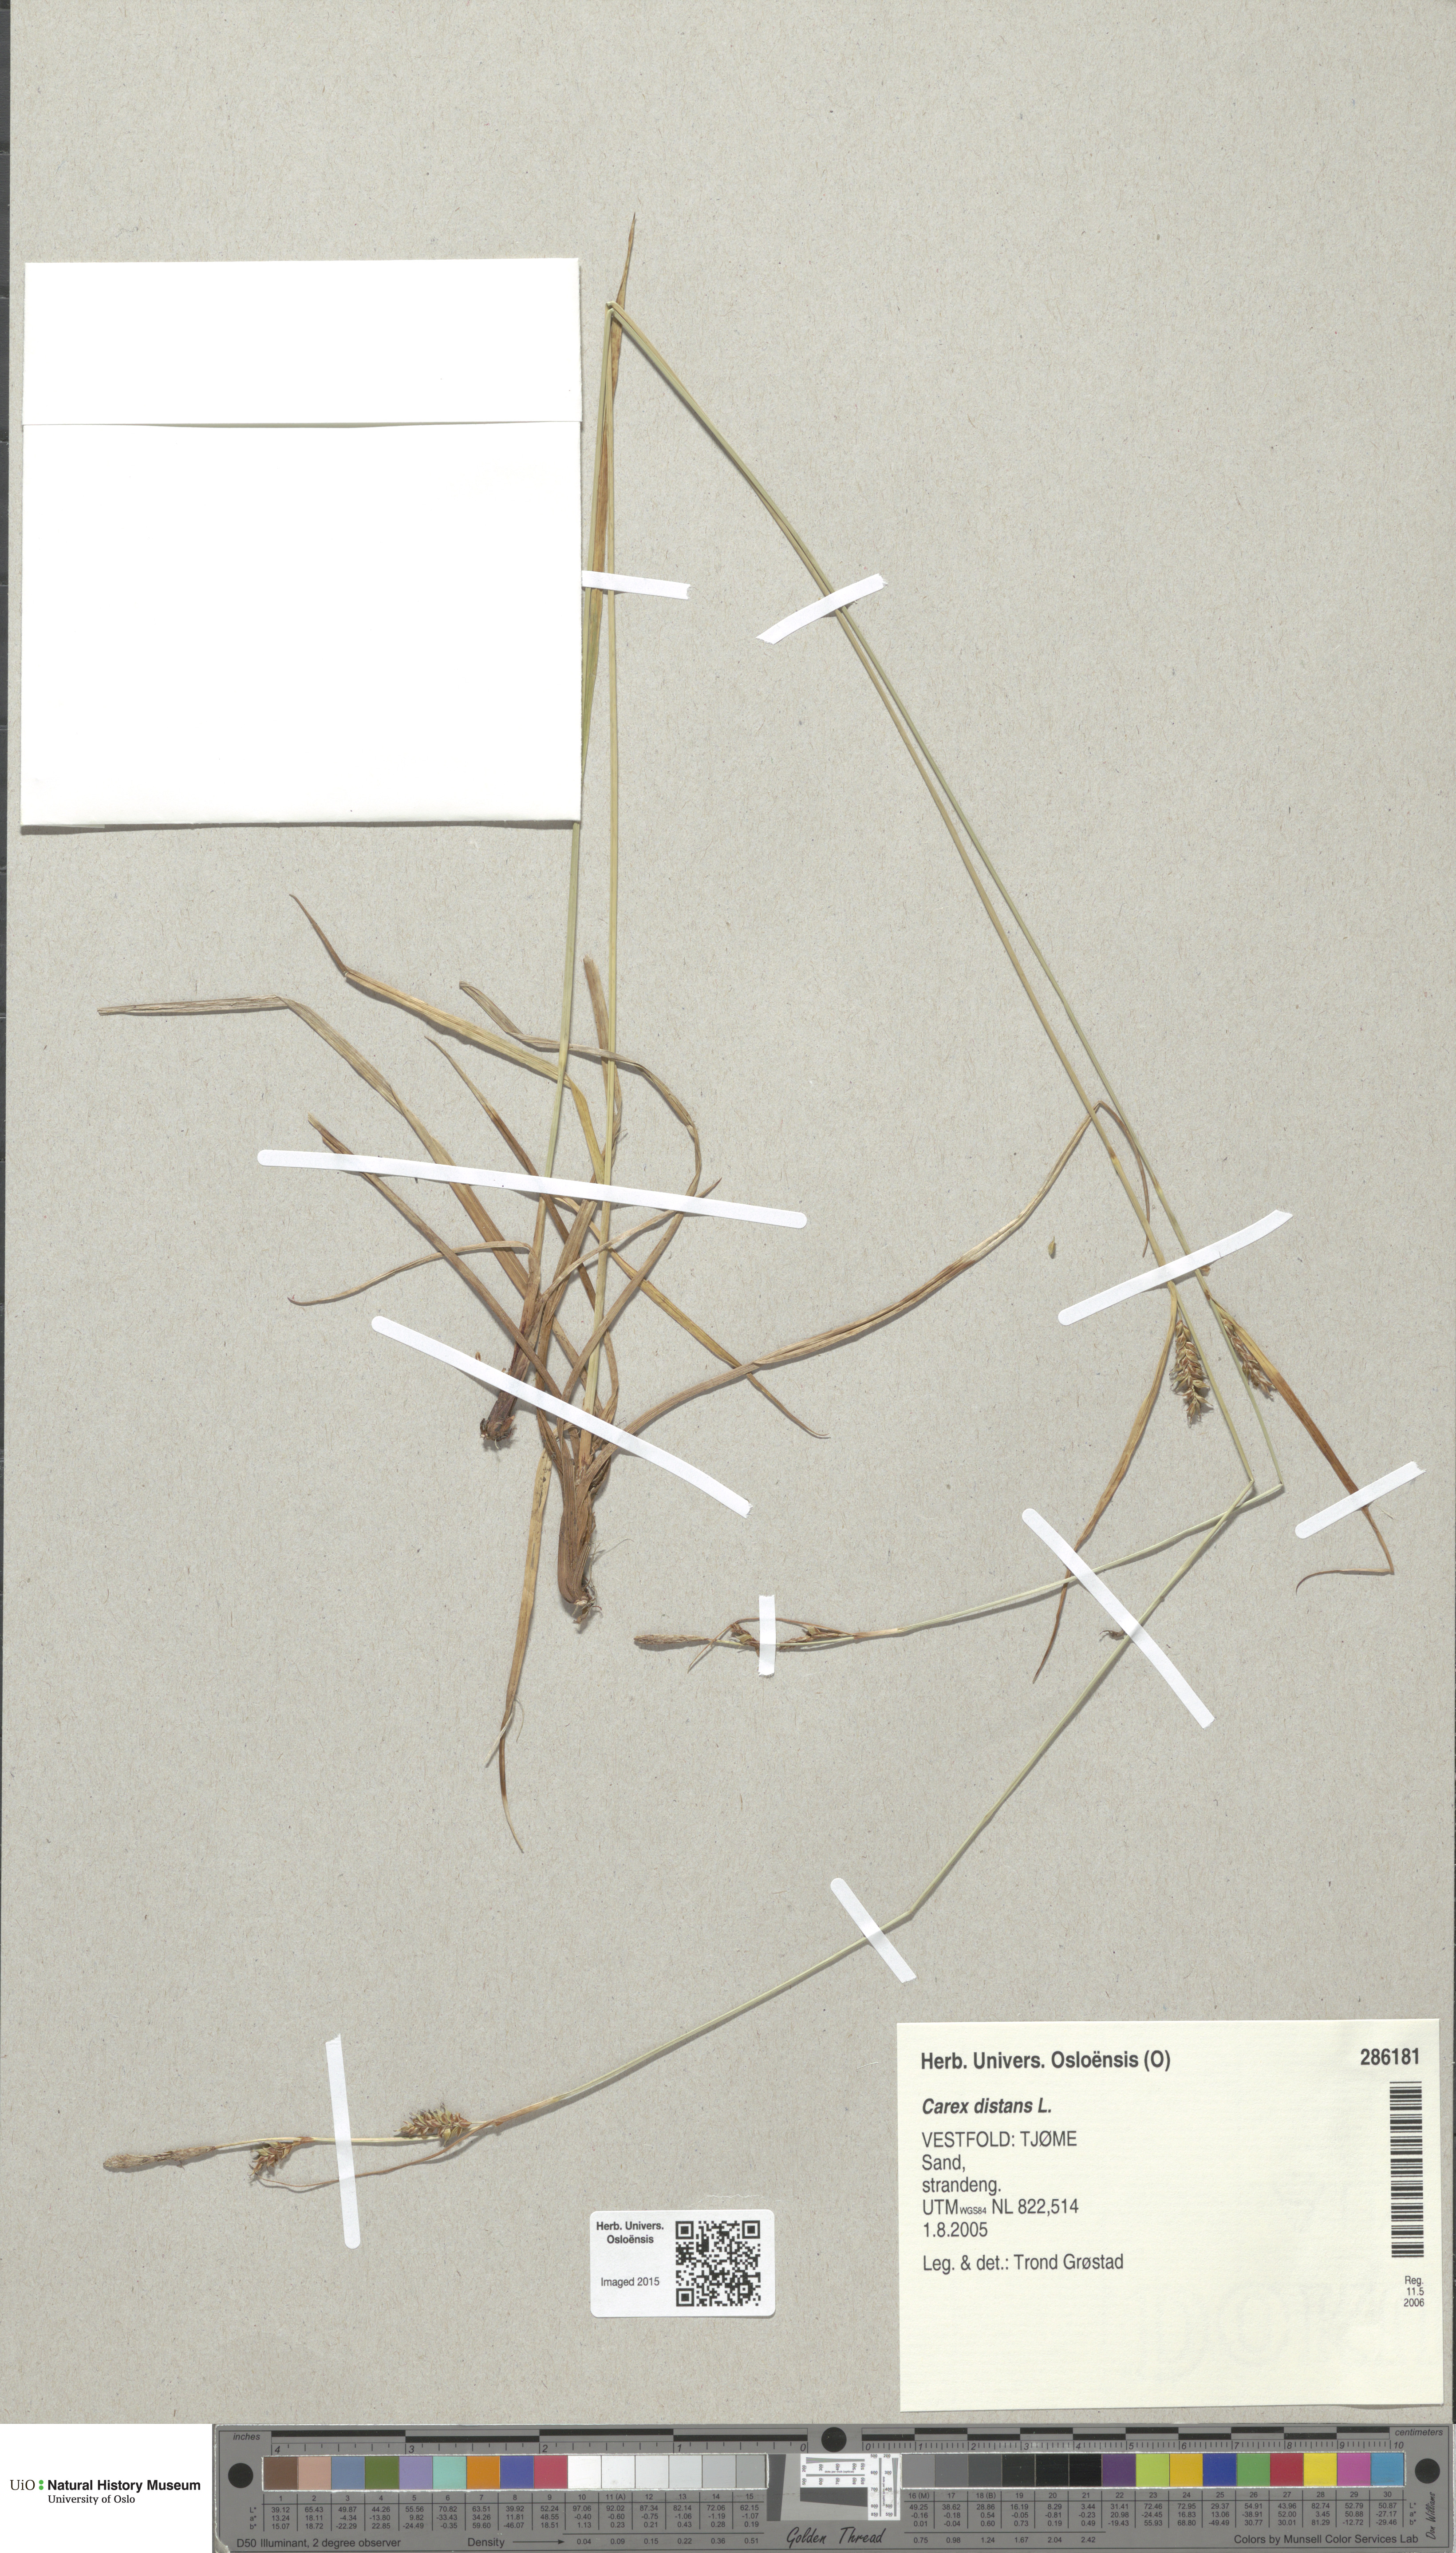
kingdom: Plantae
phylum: Tracheophyta
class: Liliopsida
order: Poales
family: Cyperaceae
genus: Carex
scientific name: Carex distans
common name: Distant sedge
